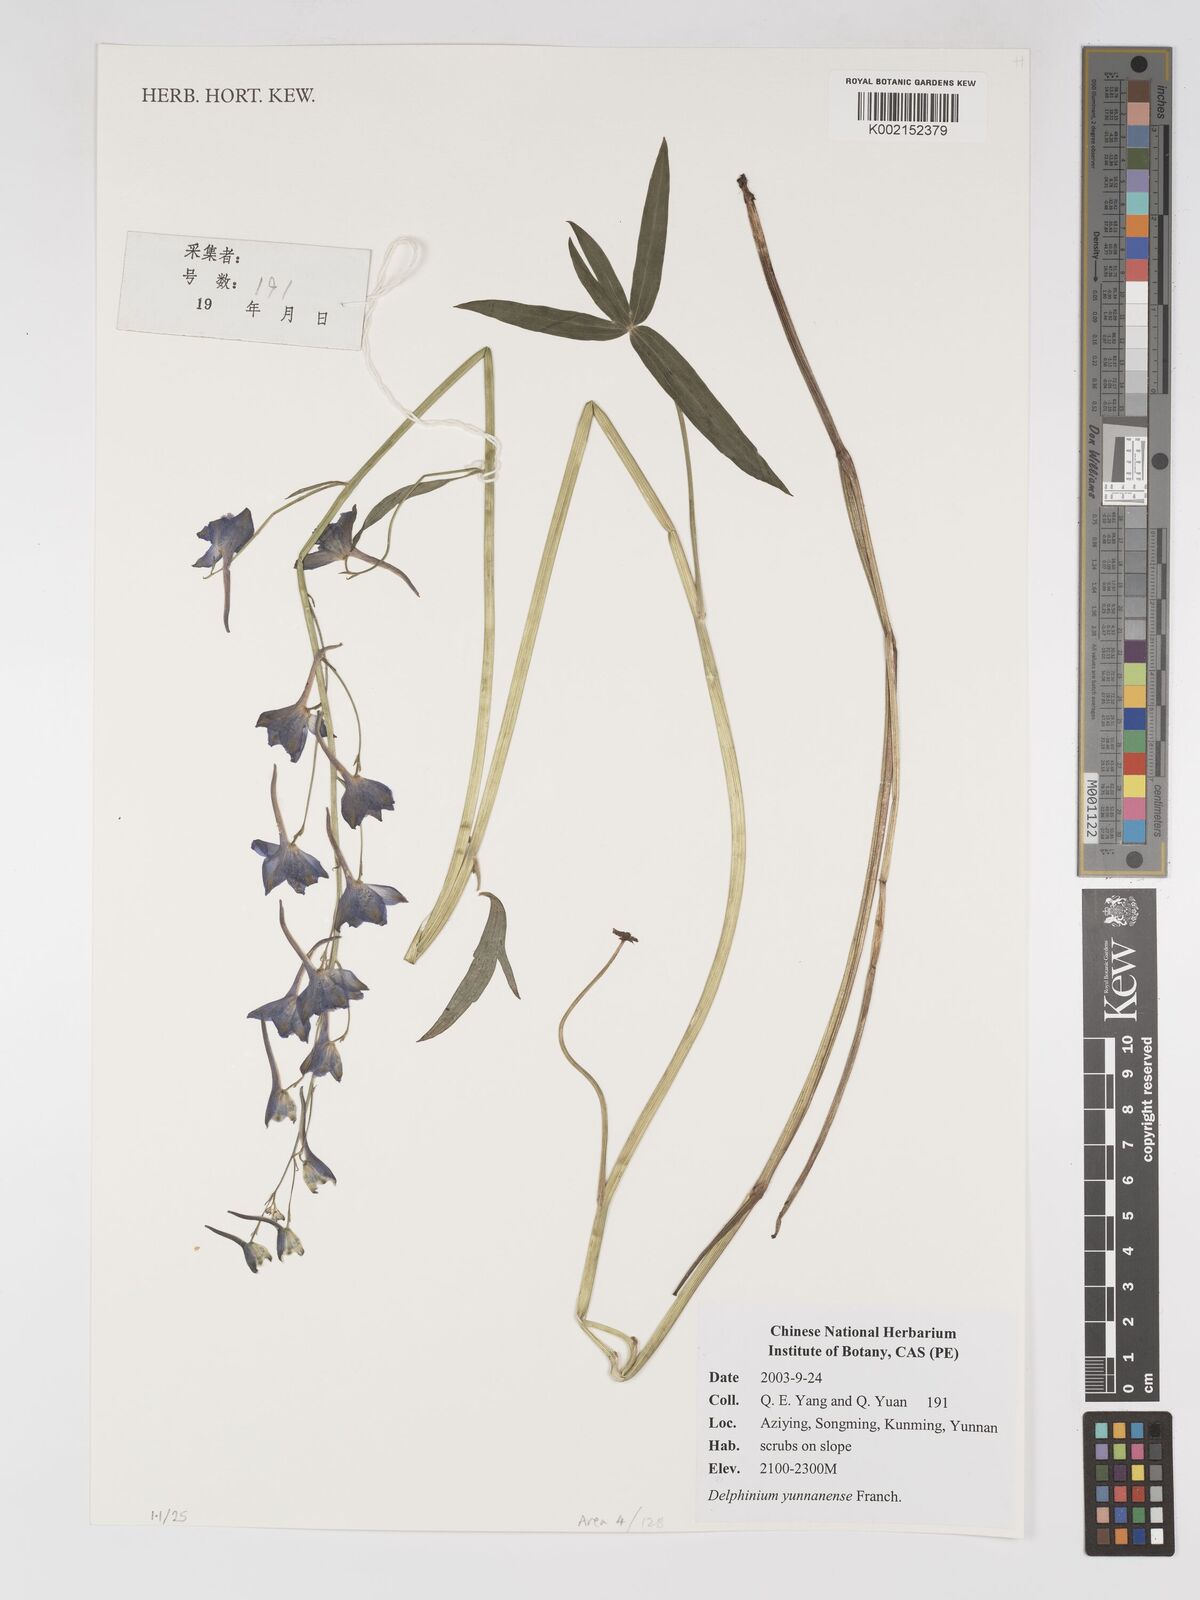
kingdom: Plantae
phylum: Tracheophyta
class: Magnoliopsida
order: Ranunculales
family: Ranunculaceae
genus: Delphinium
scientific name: Delphinium yunnanense
